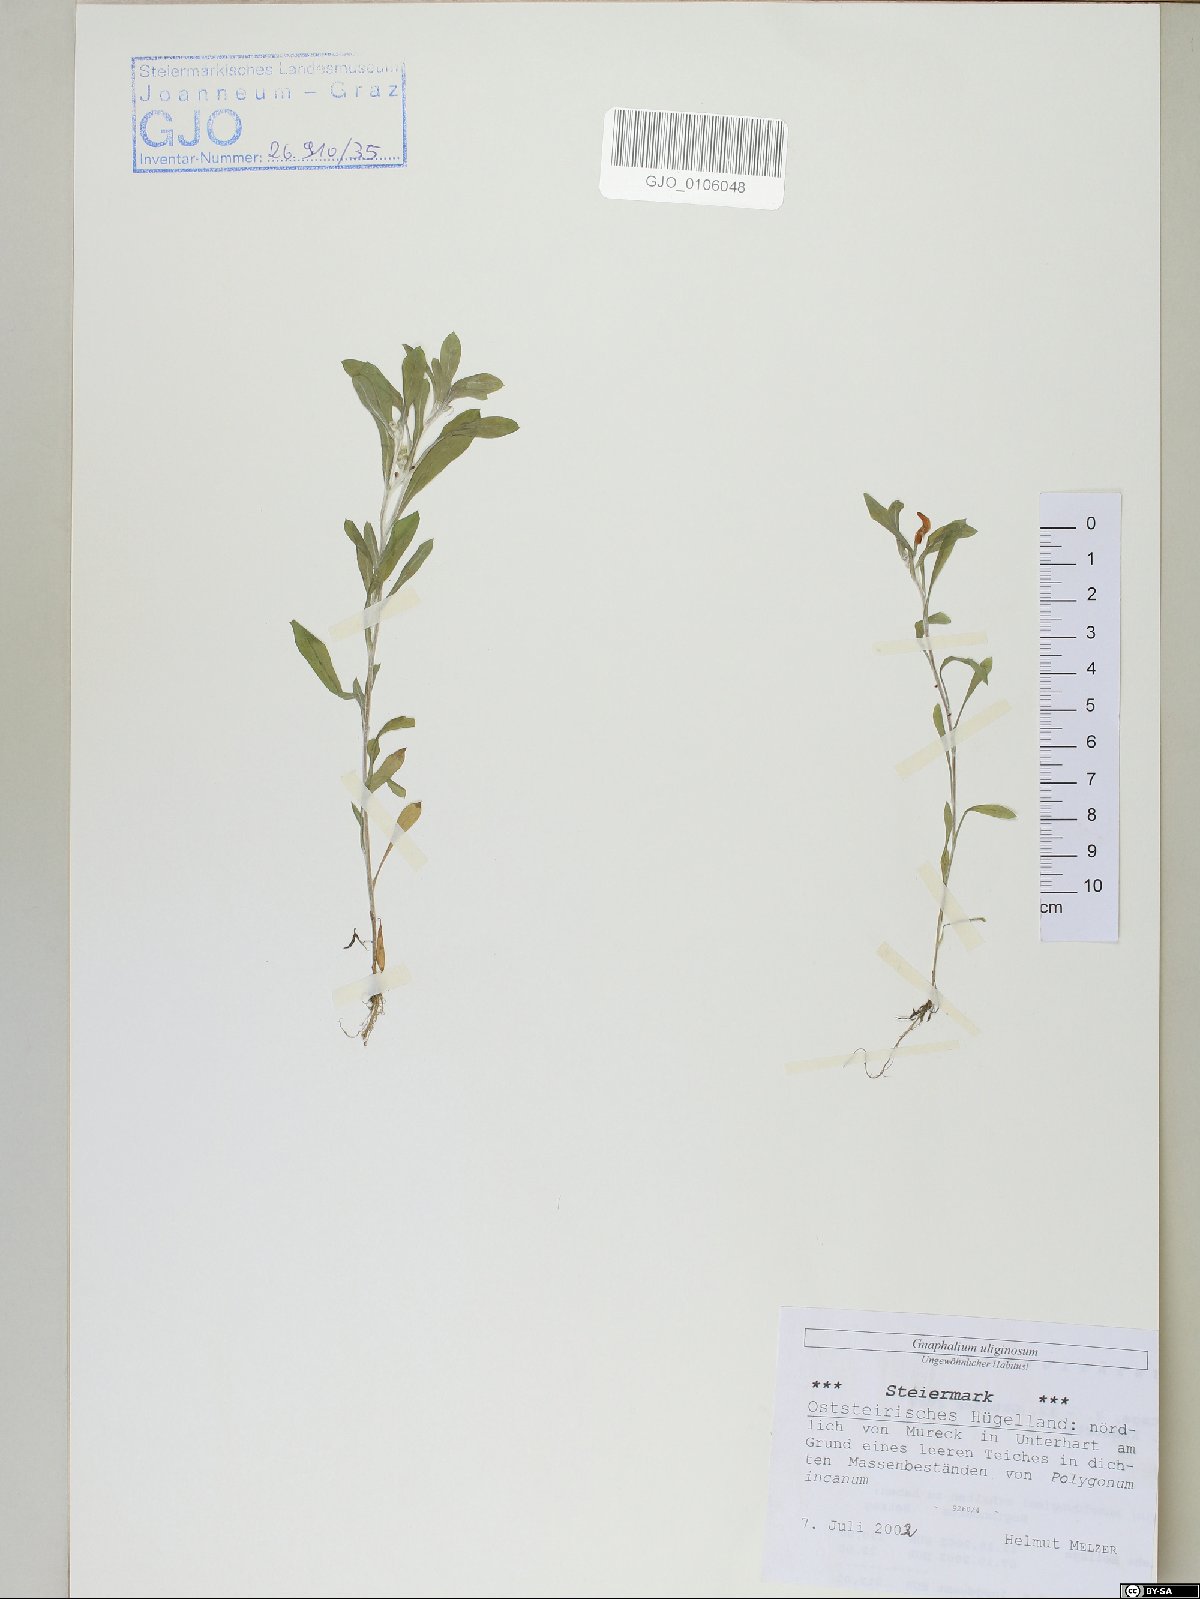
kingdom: Plantae
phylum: Tracheophyta
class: Magnoliopsida
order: Asterales
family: Asteraceae
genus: Gnaphalium
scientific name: Gnaphalium uliginosum
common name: Marsh cudweed
